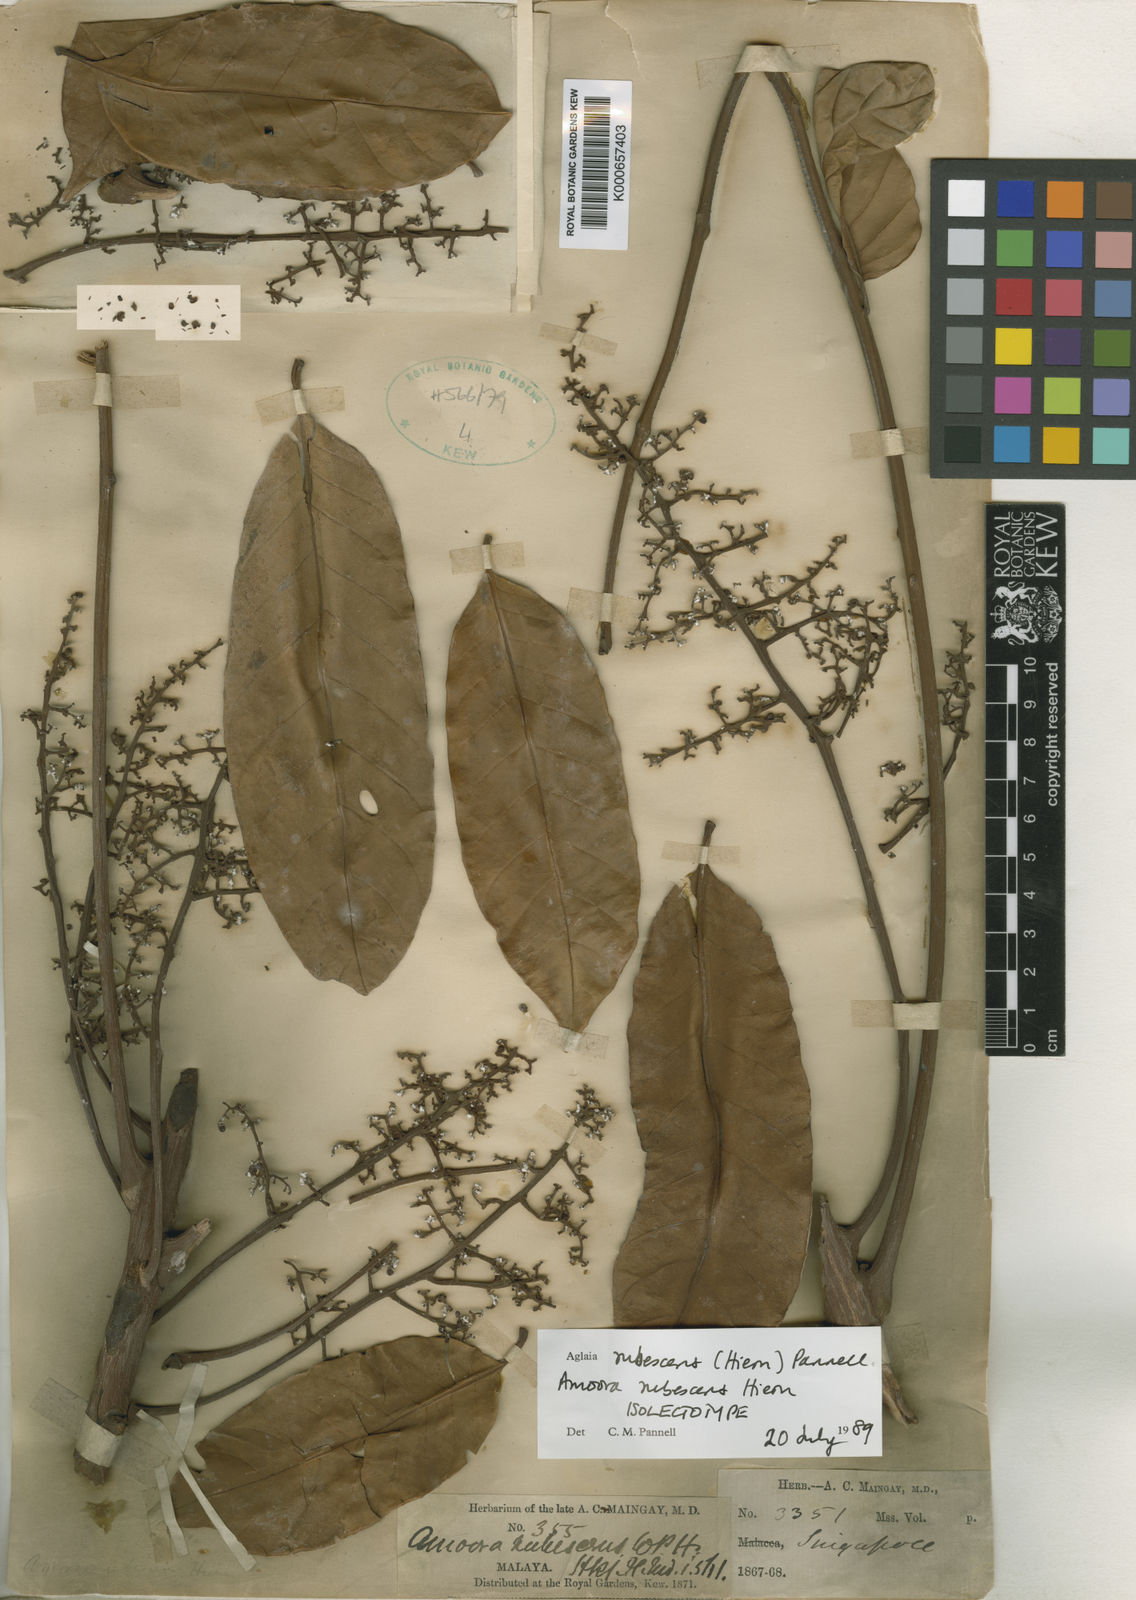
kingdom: Plantae
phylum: Tracheophyta
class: Magnoliopsida
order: Sapindales
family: Meliaceae
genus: Aglaia
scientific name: Aglaia macrocarpa
